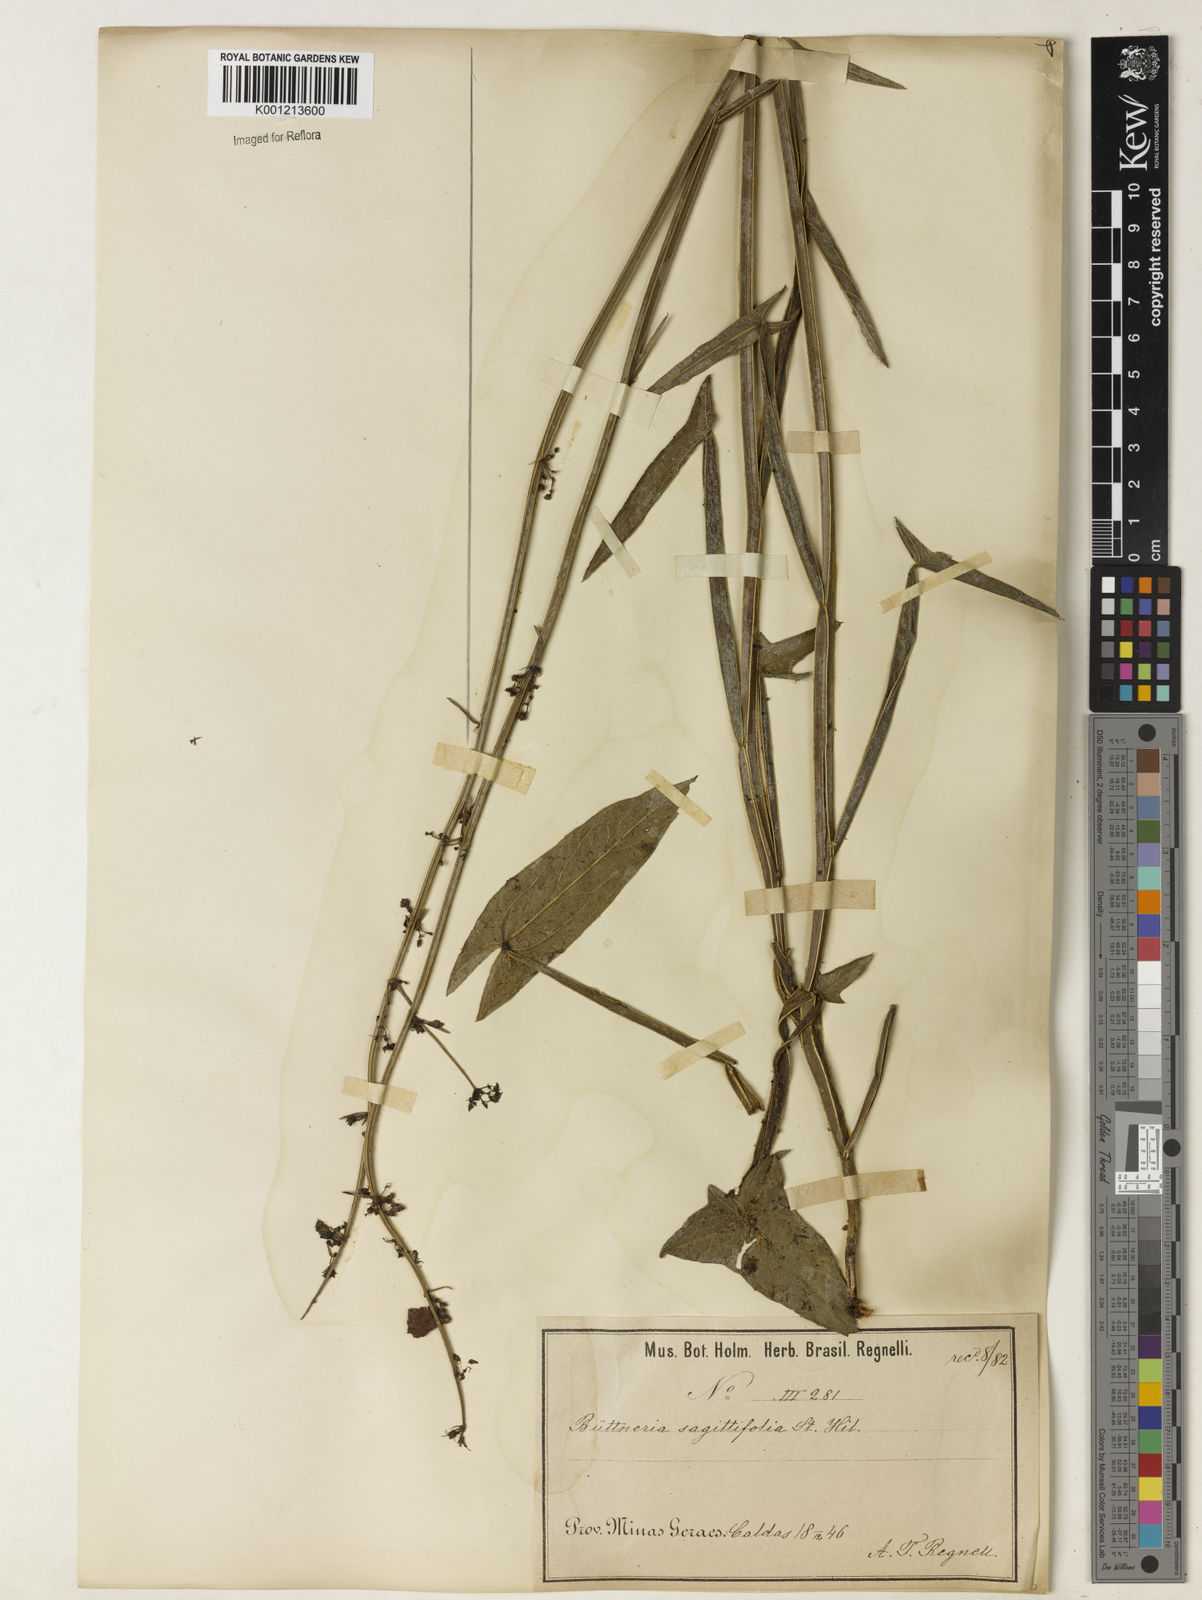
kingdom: Plantae
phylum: Tracheophyta
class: Magnoliopsida
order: Malvales
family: Malvaceae
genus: Byttneria
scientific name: Byttneria sagittifolia
